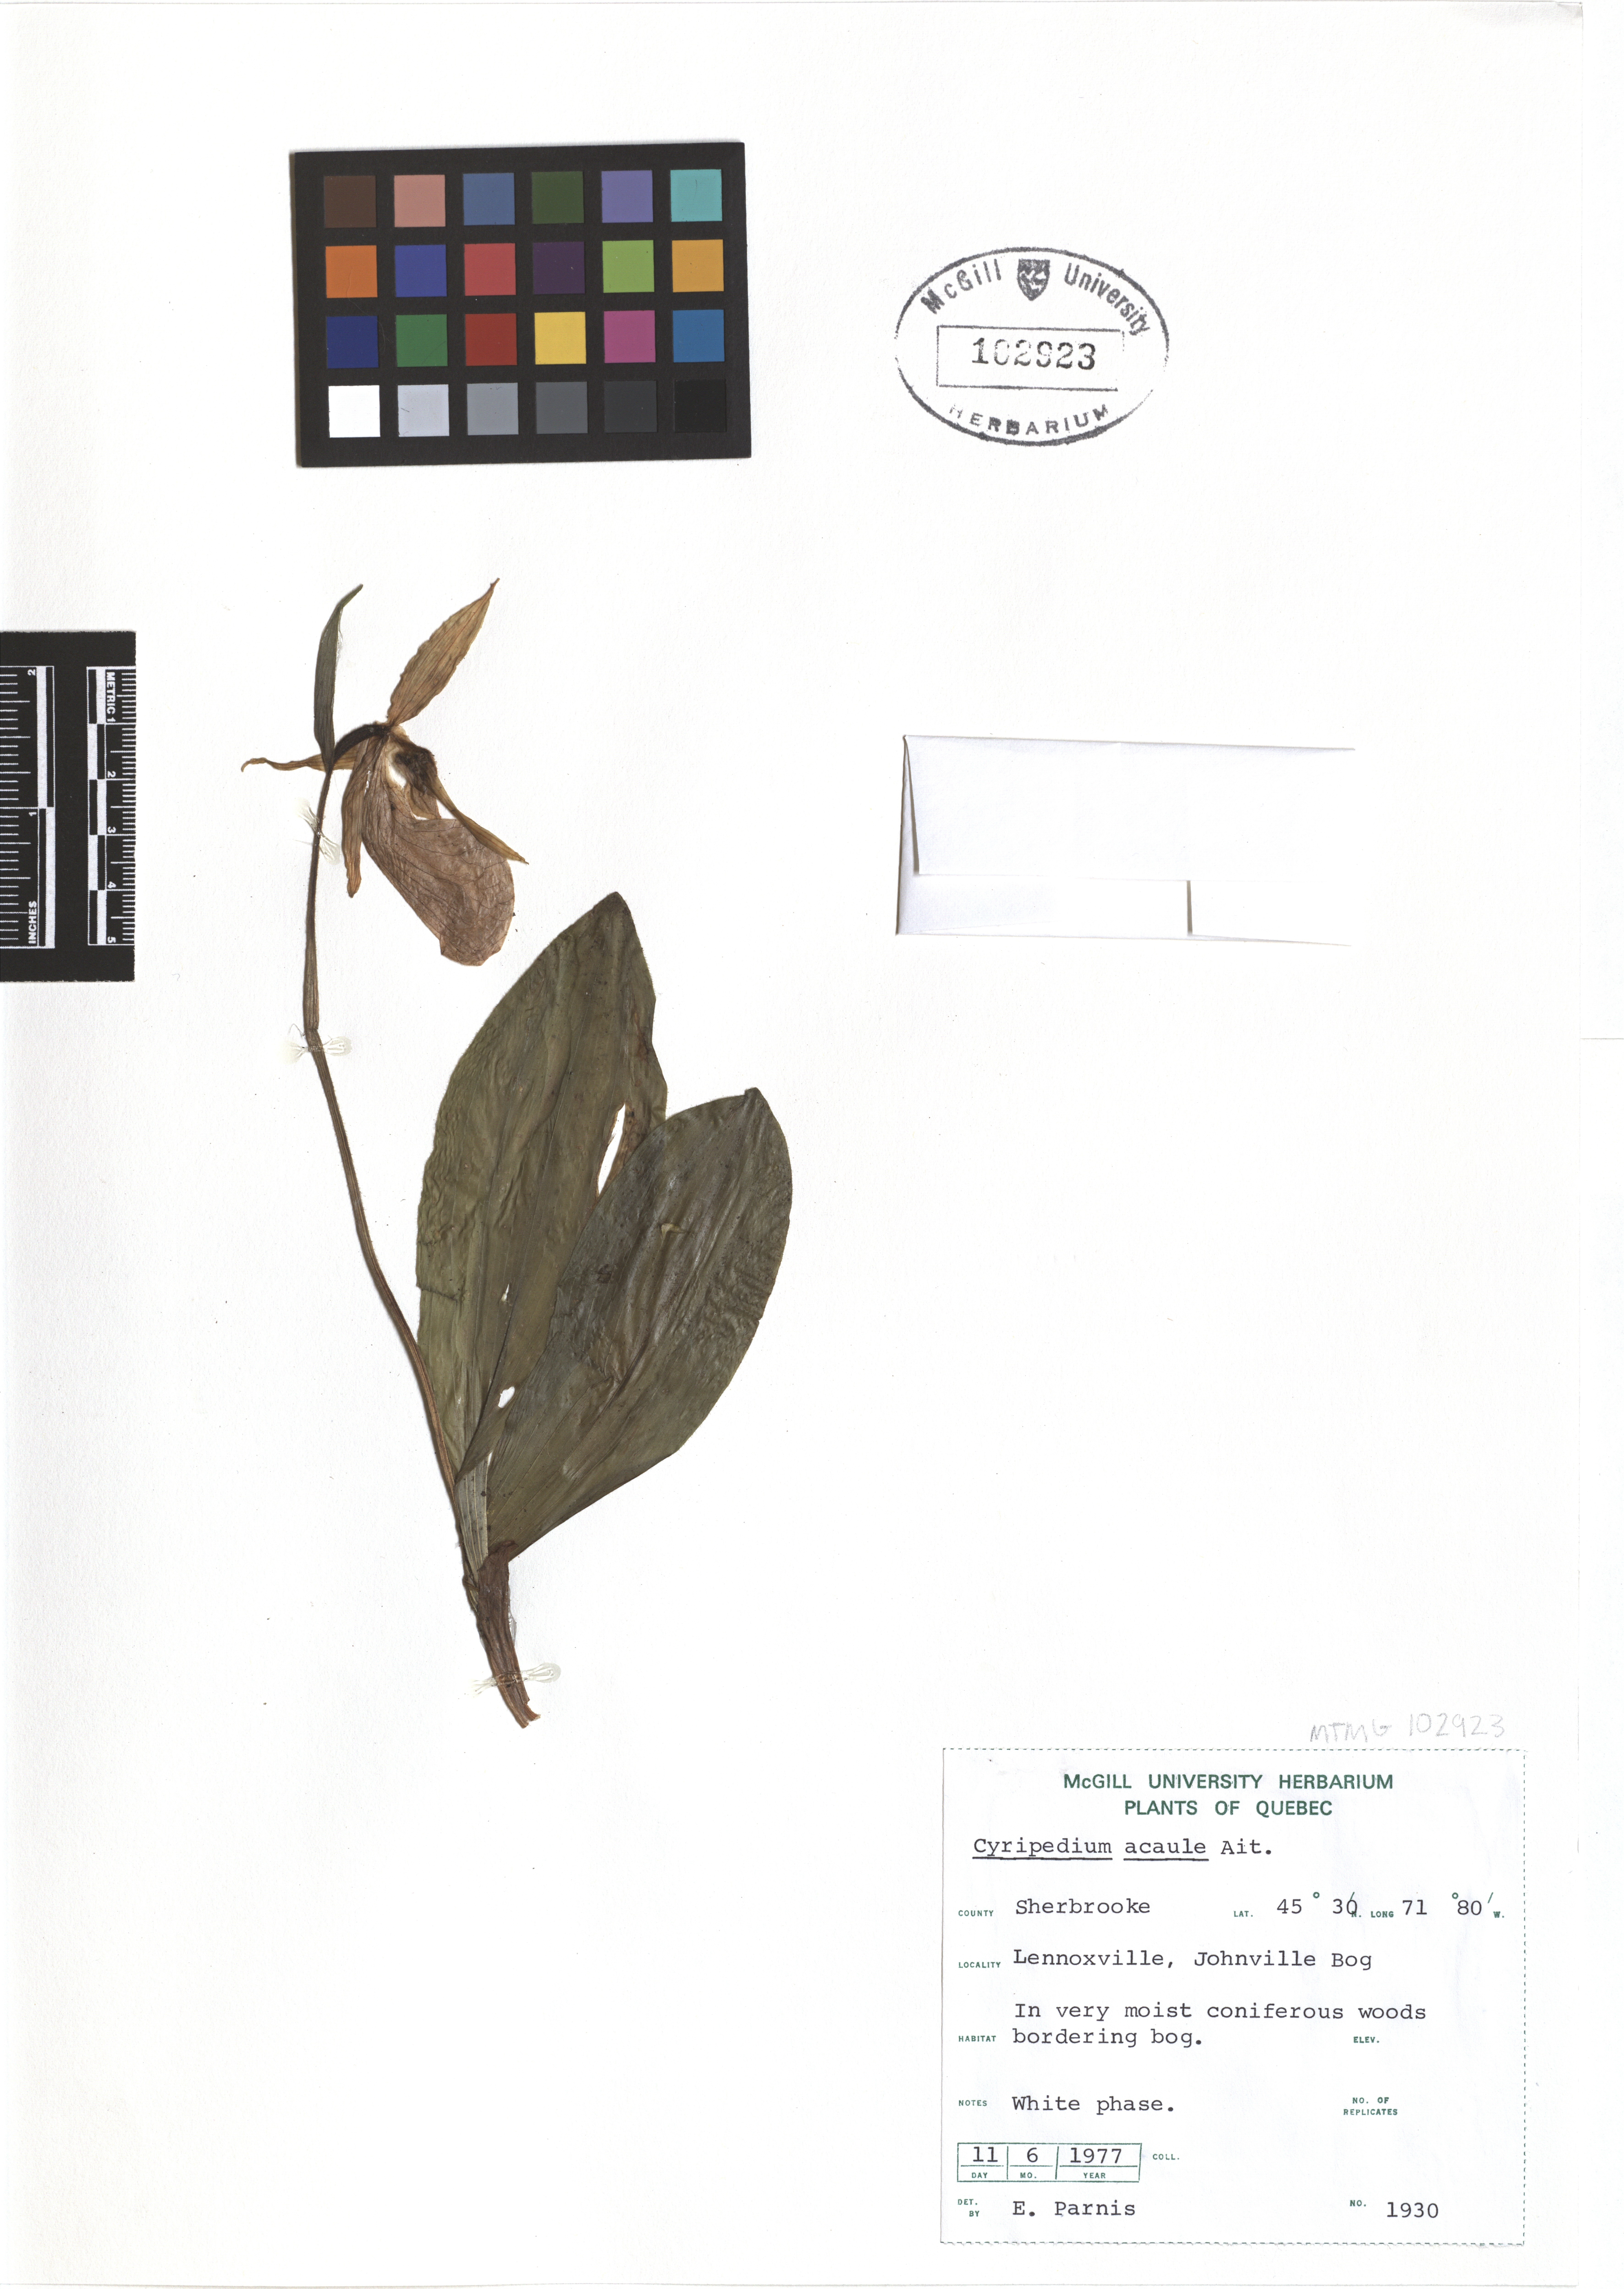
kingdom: Plantae
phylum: Tracheophyta
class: Liliopsida
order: Asparagales
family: Orchidaceae
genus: Cypripedium
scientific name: Cypripedium acaule
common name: Pink lady's-slipper
